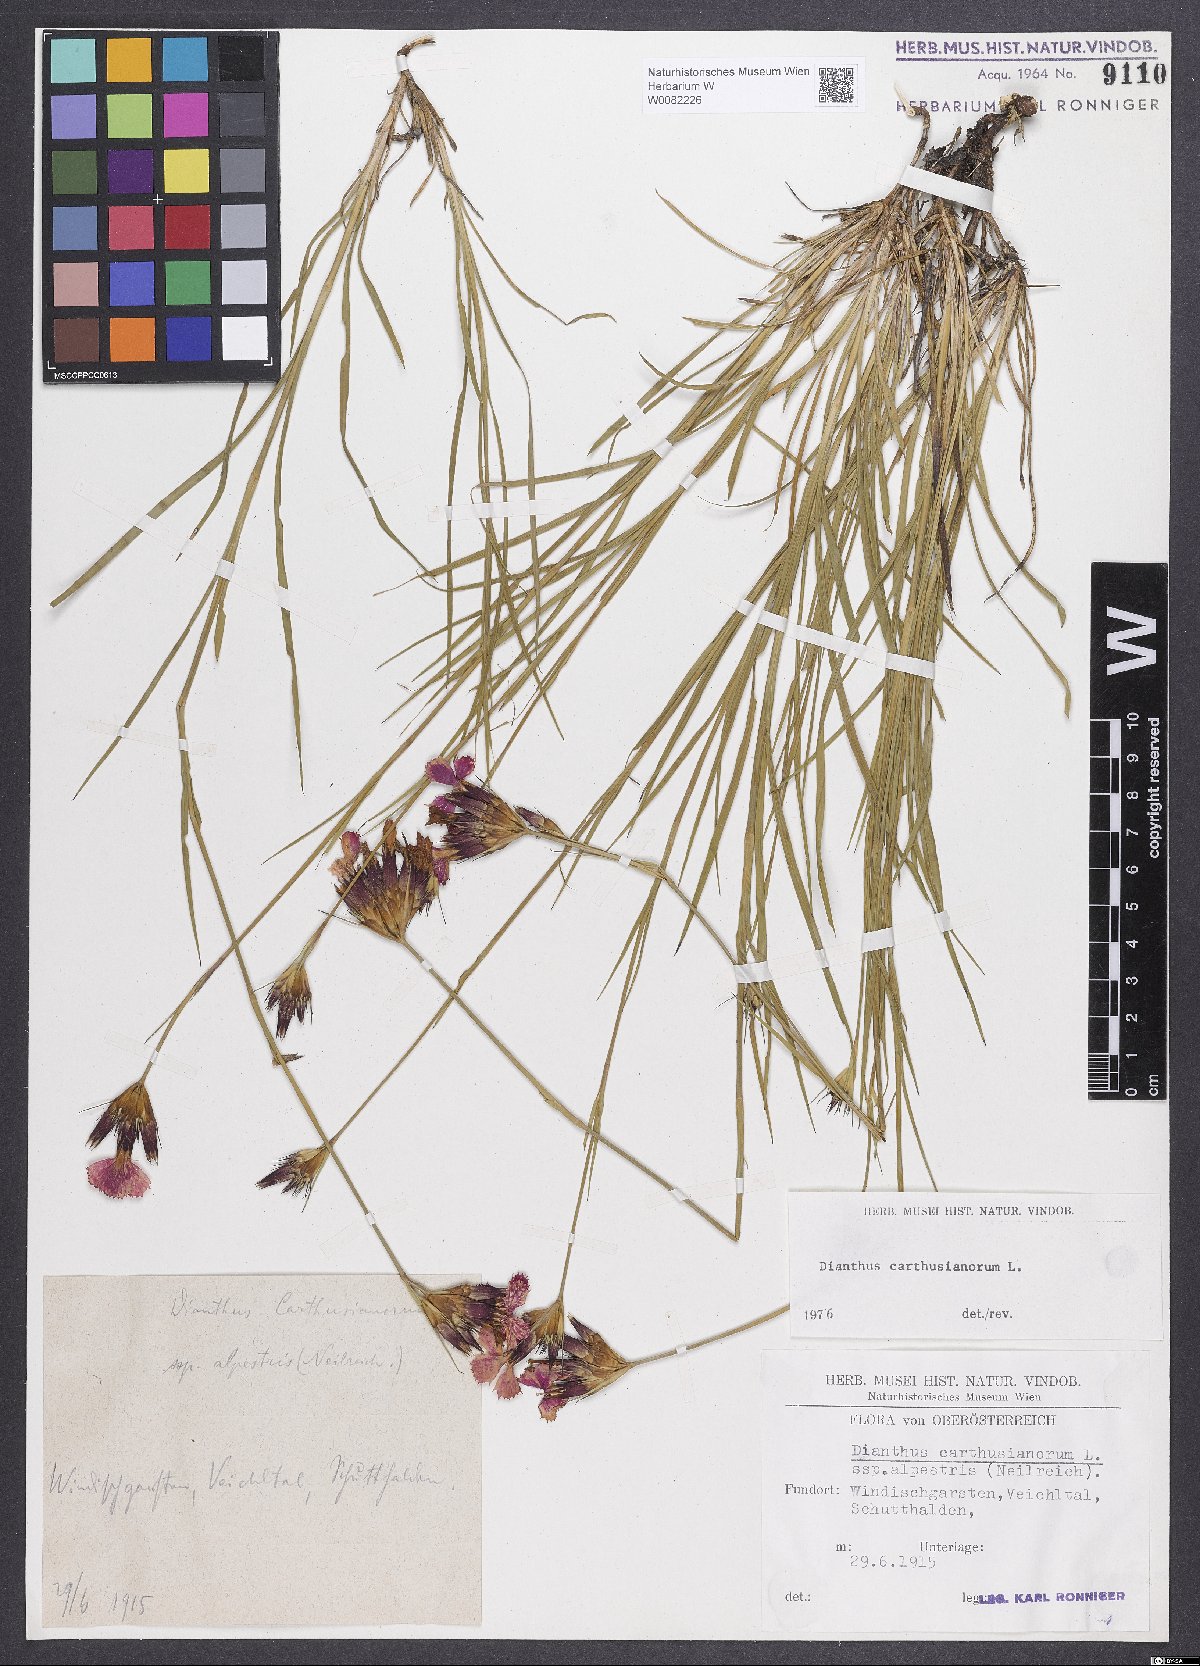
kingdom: Plantae
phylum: Tracheophyta
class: Magnoliopsida
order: Caryophyllales
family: Caryophyllaceae
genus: Dianthus
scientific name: Dianthus carthusianorum
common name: Carthusian pink
